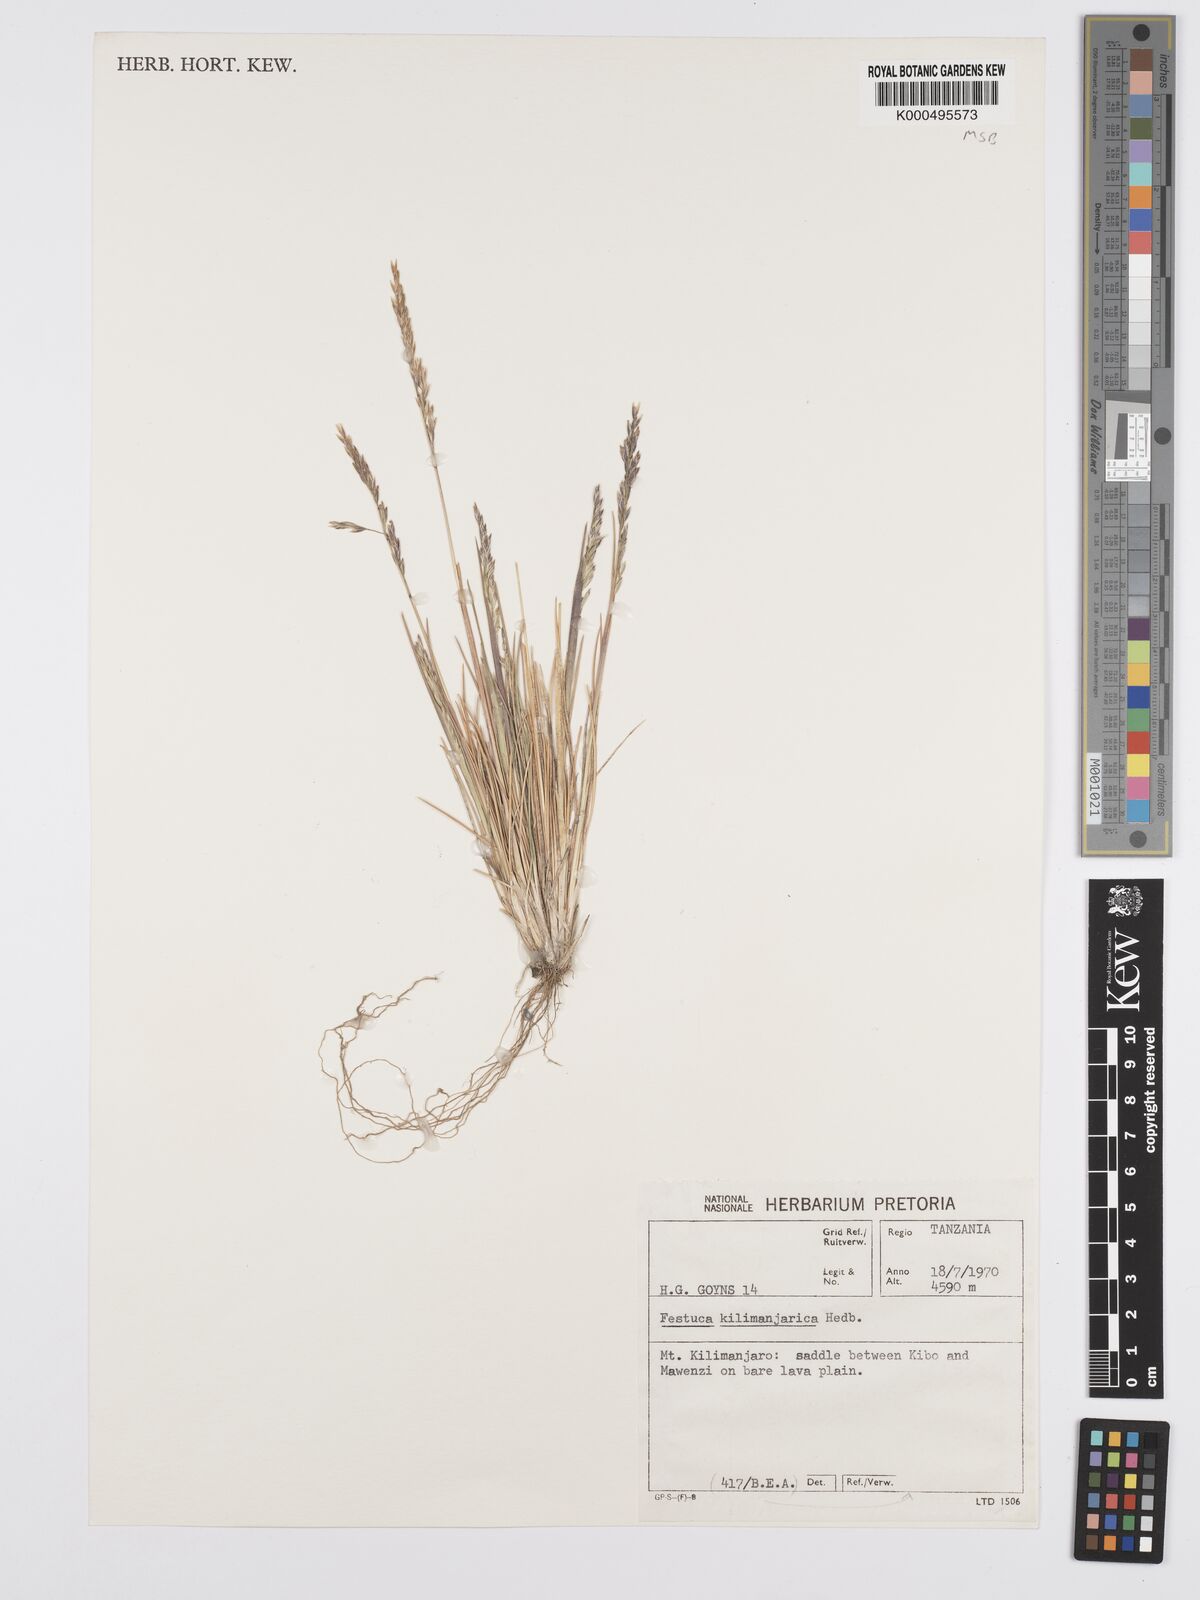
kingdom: Plantae
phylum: Tracheophyta
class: Liliopsida
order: Poales
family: Poaceae
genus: Poa
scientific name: Poa kilimanjarica
